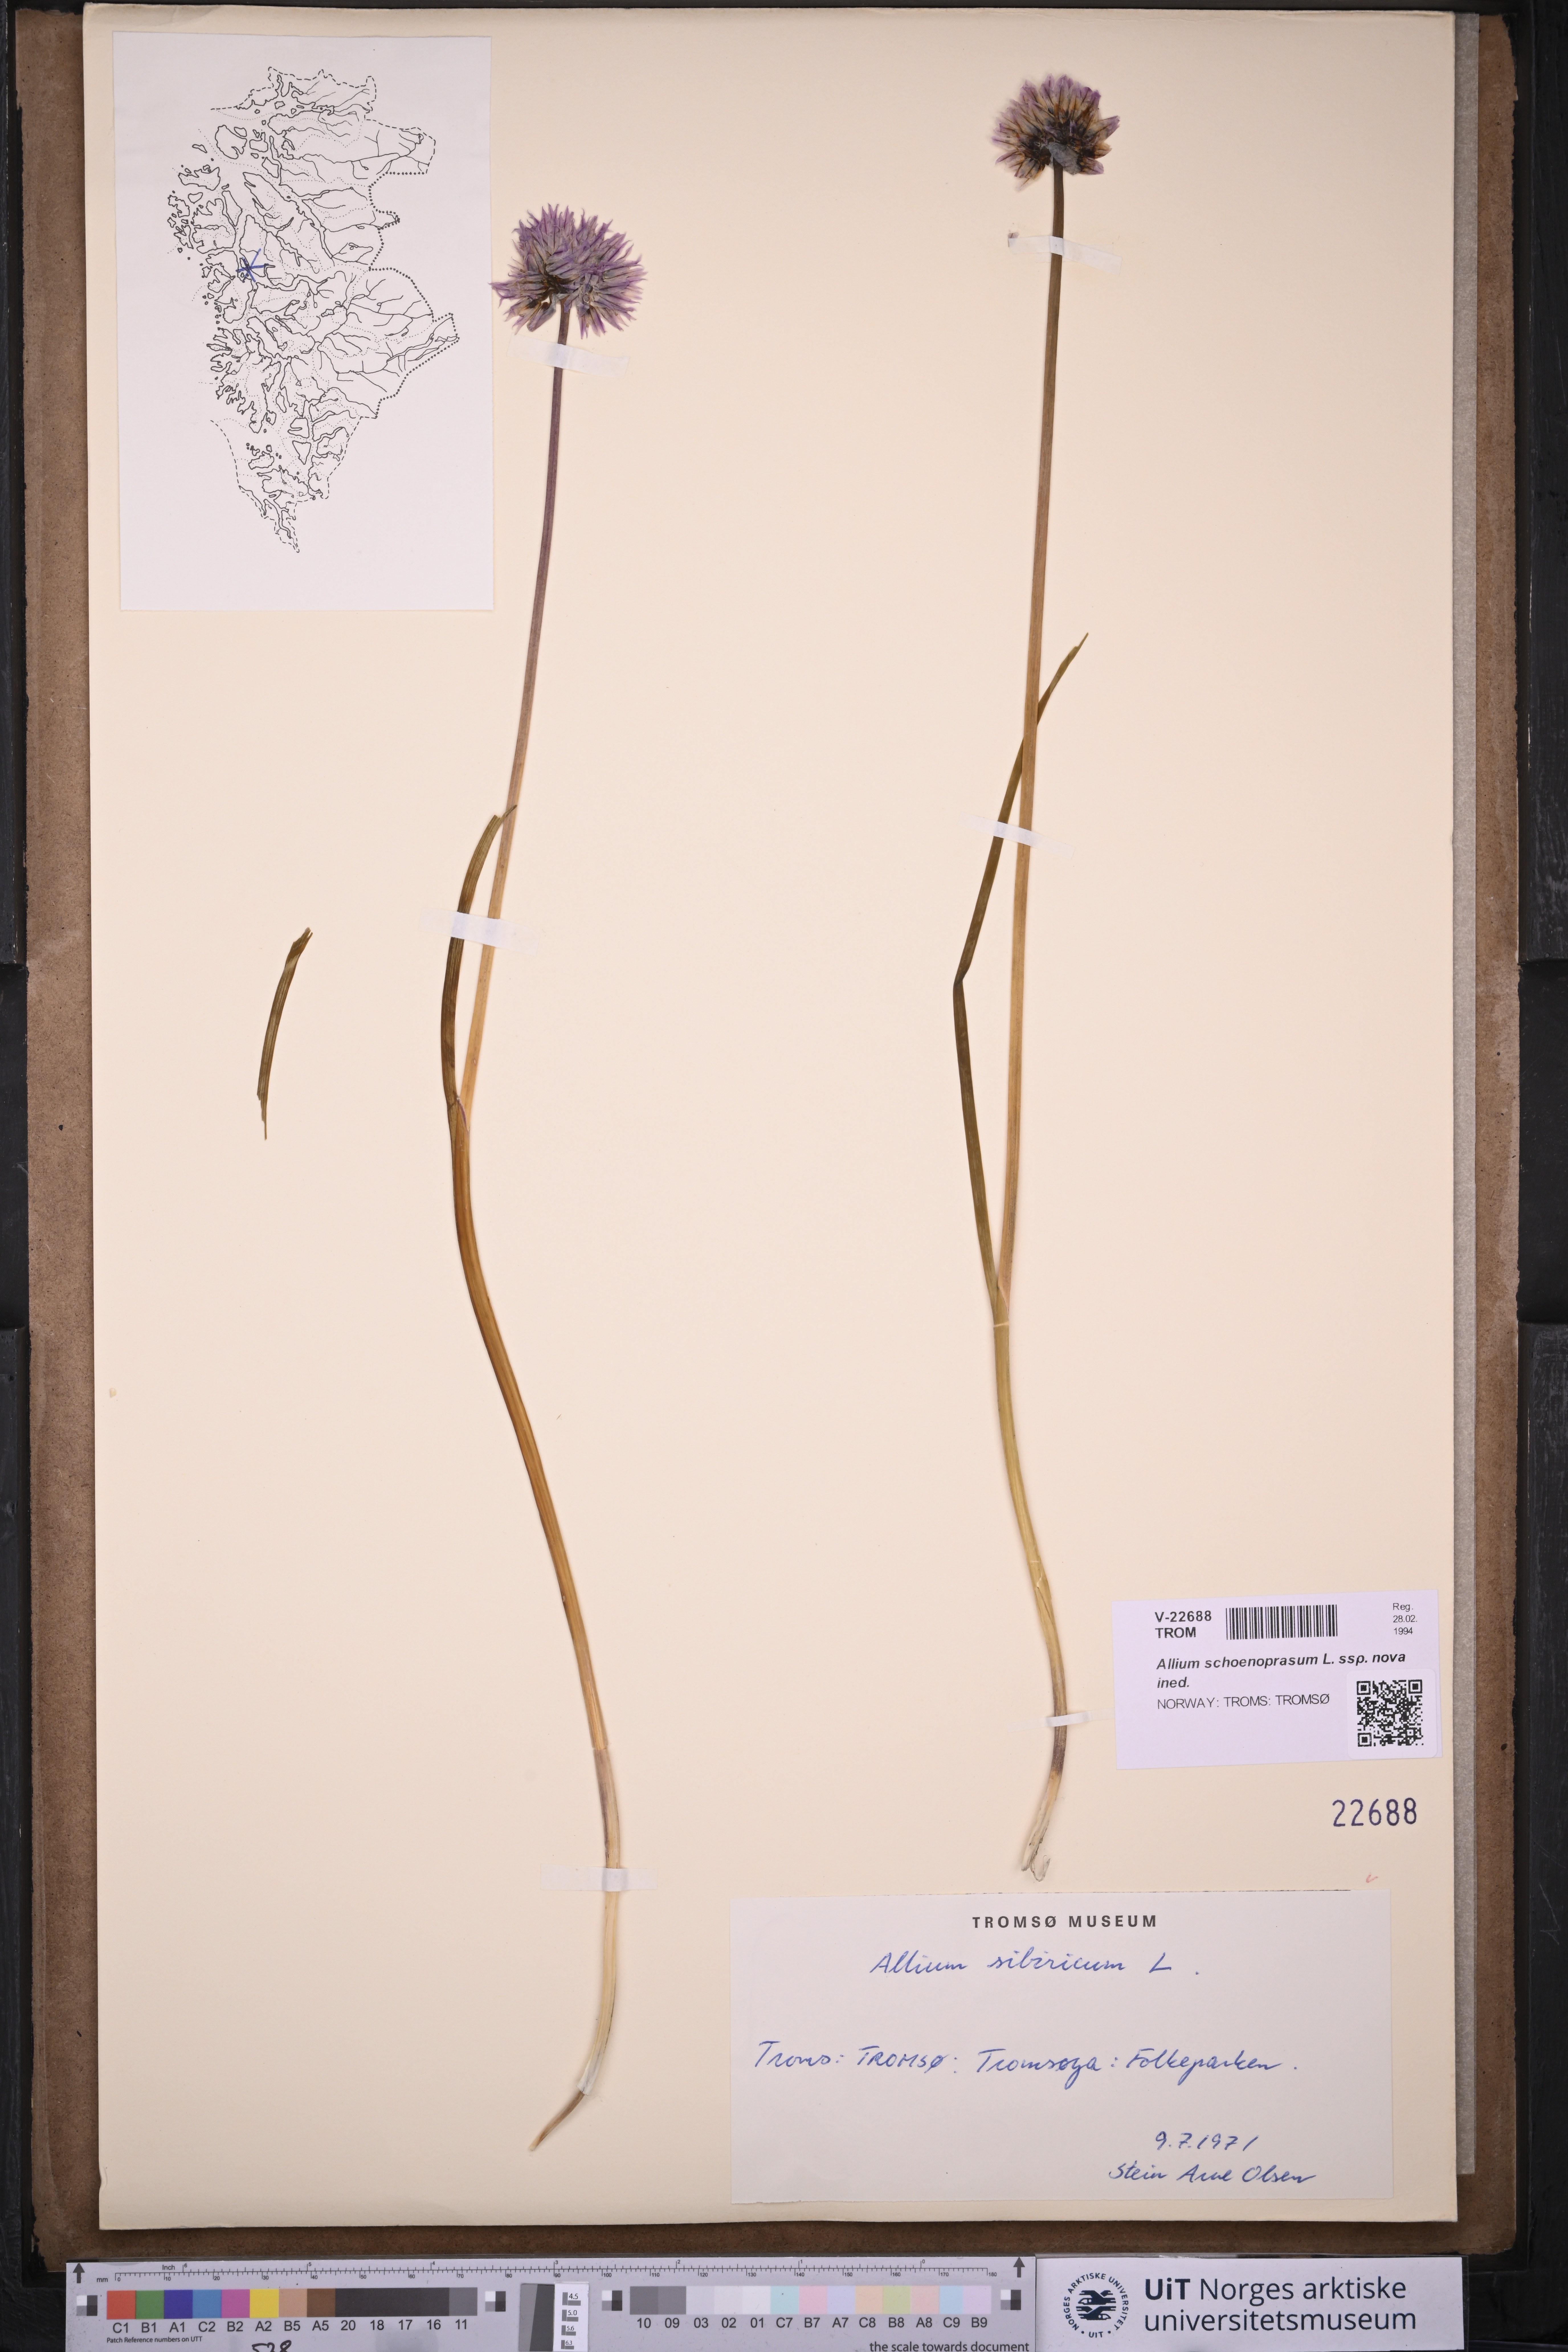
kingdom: Plantae
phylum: Tracheophyta
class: Liliopsida
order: Asparagales
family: Amaryllidaceae
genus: Allium
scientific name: Allium schoenoprasum
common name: Chives
